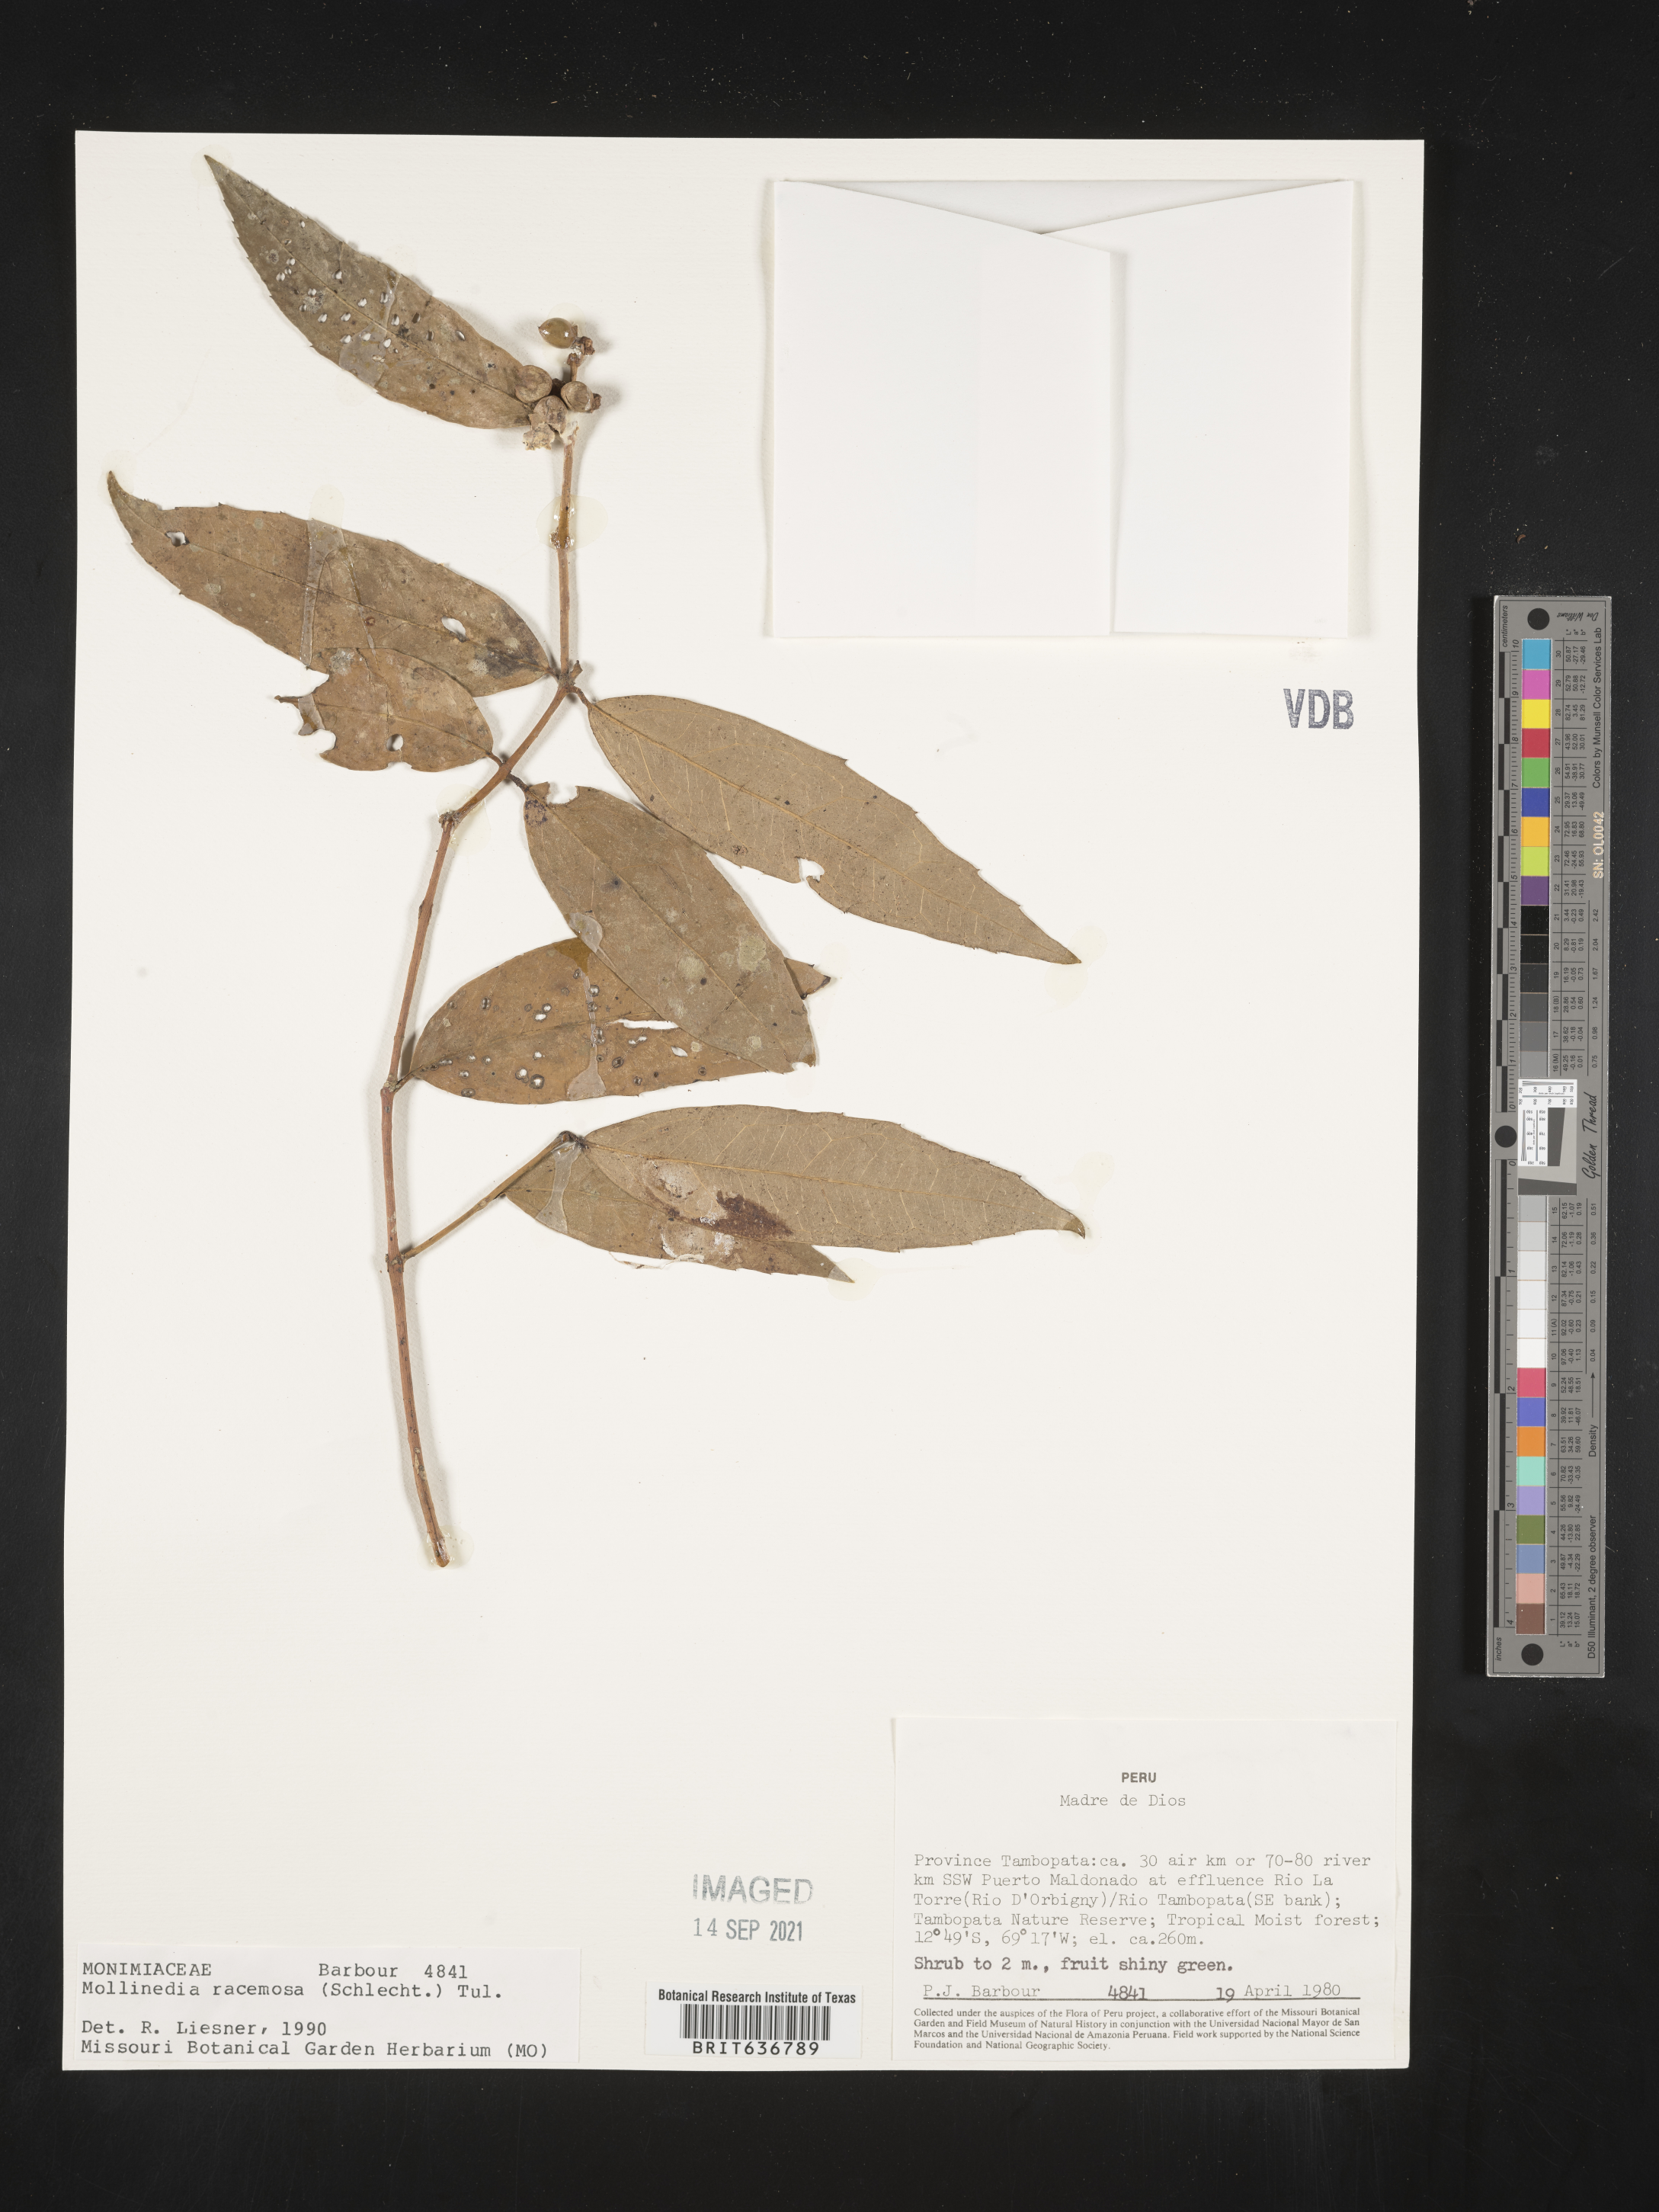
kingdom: Plantae
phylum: Tracheophyta
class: Magnoliopsida
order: Laurales
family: Monimiaceae
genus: Mollinedia
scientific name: Mollinedia
